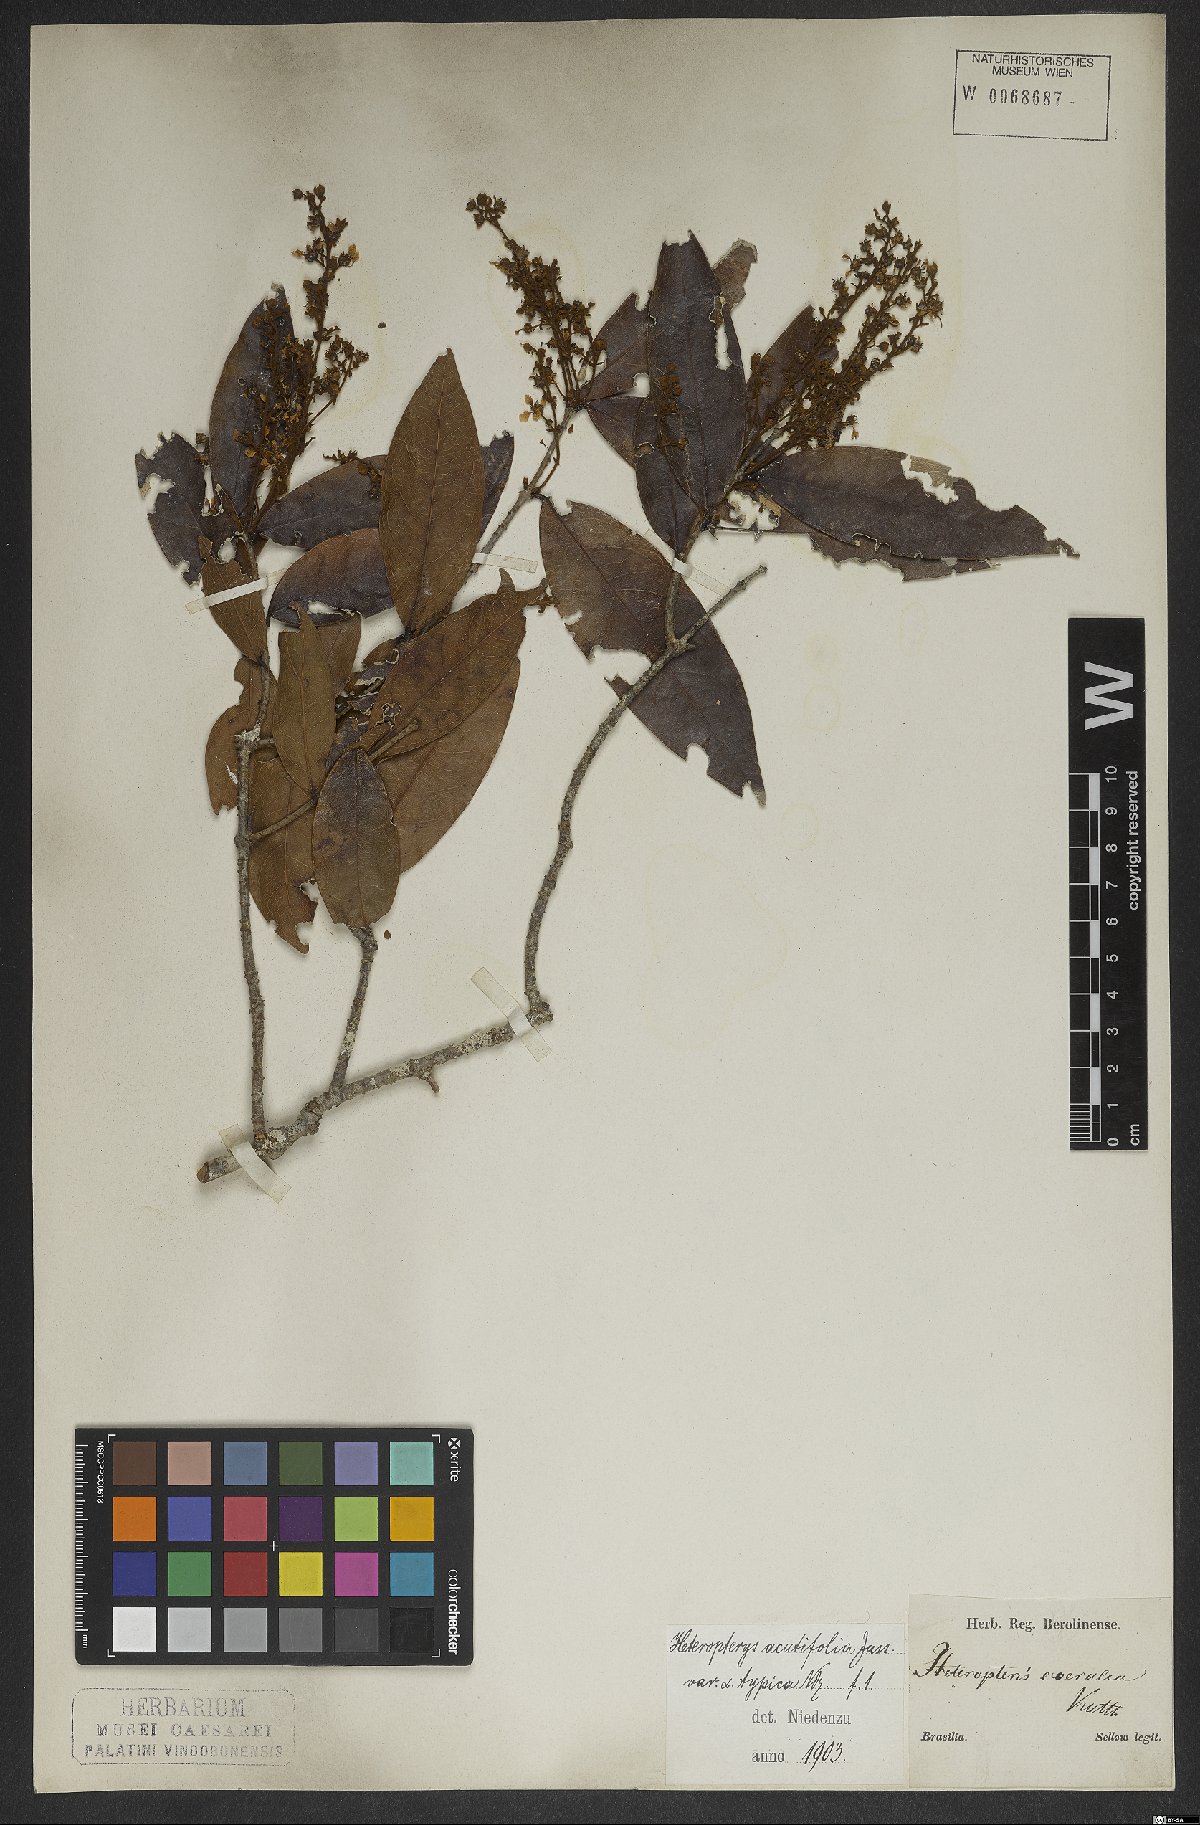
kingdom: Plantae
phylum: Tracheophyta
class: Magnoliopsida
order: Malpighiales
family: Malpighiaceae
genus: Heteropterys
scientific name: Heteropterys orinocensis
